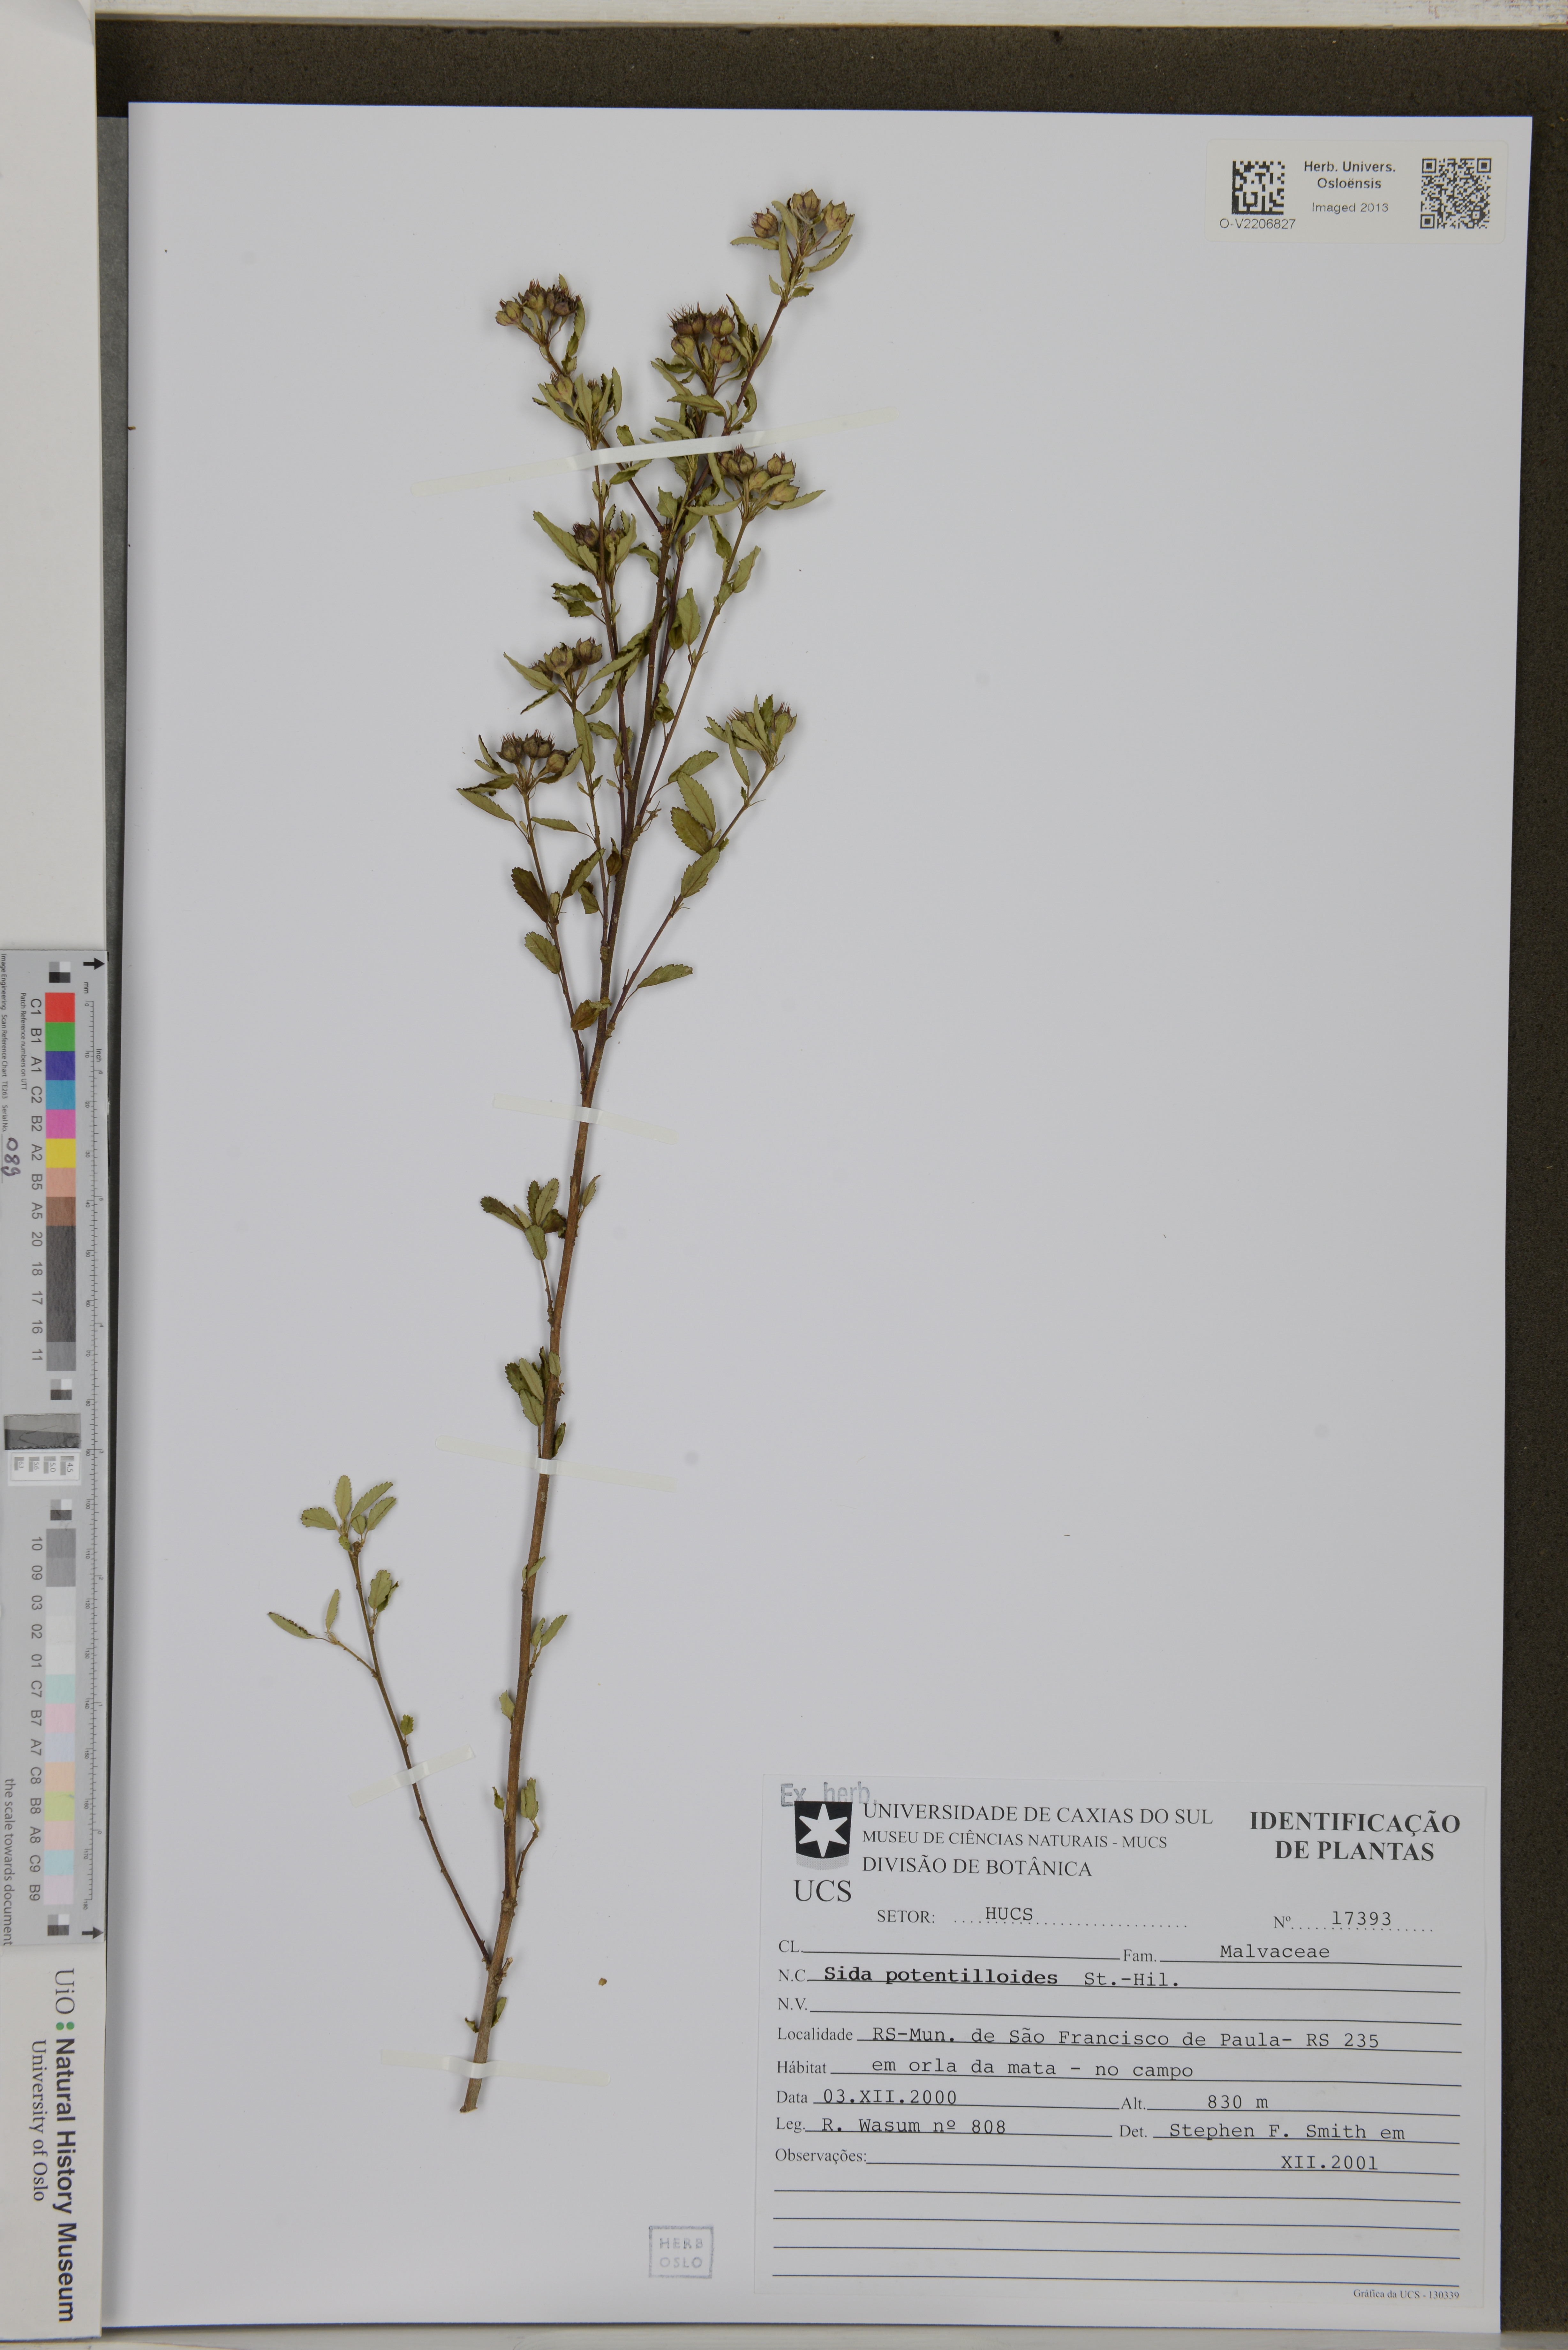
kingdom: Plantae
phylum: Tracheophyta
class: Magnoliopsida
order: Malvales
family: Malvaceae
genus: Sida
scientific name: Sida potentilloides
